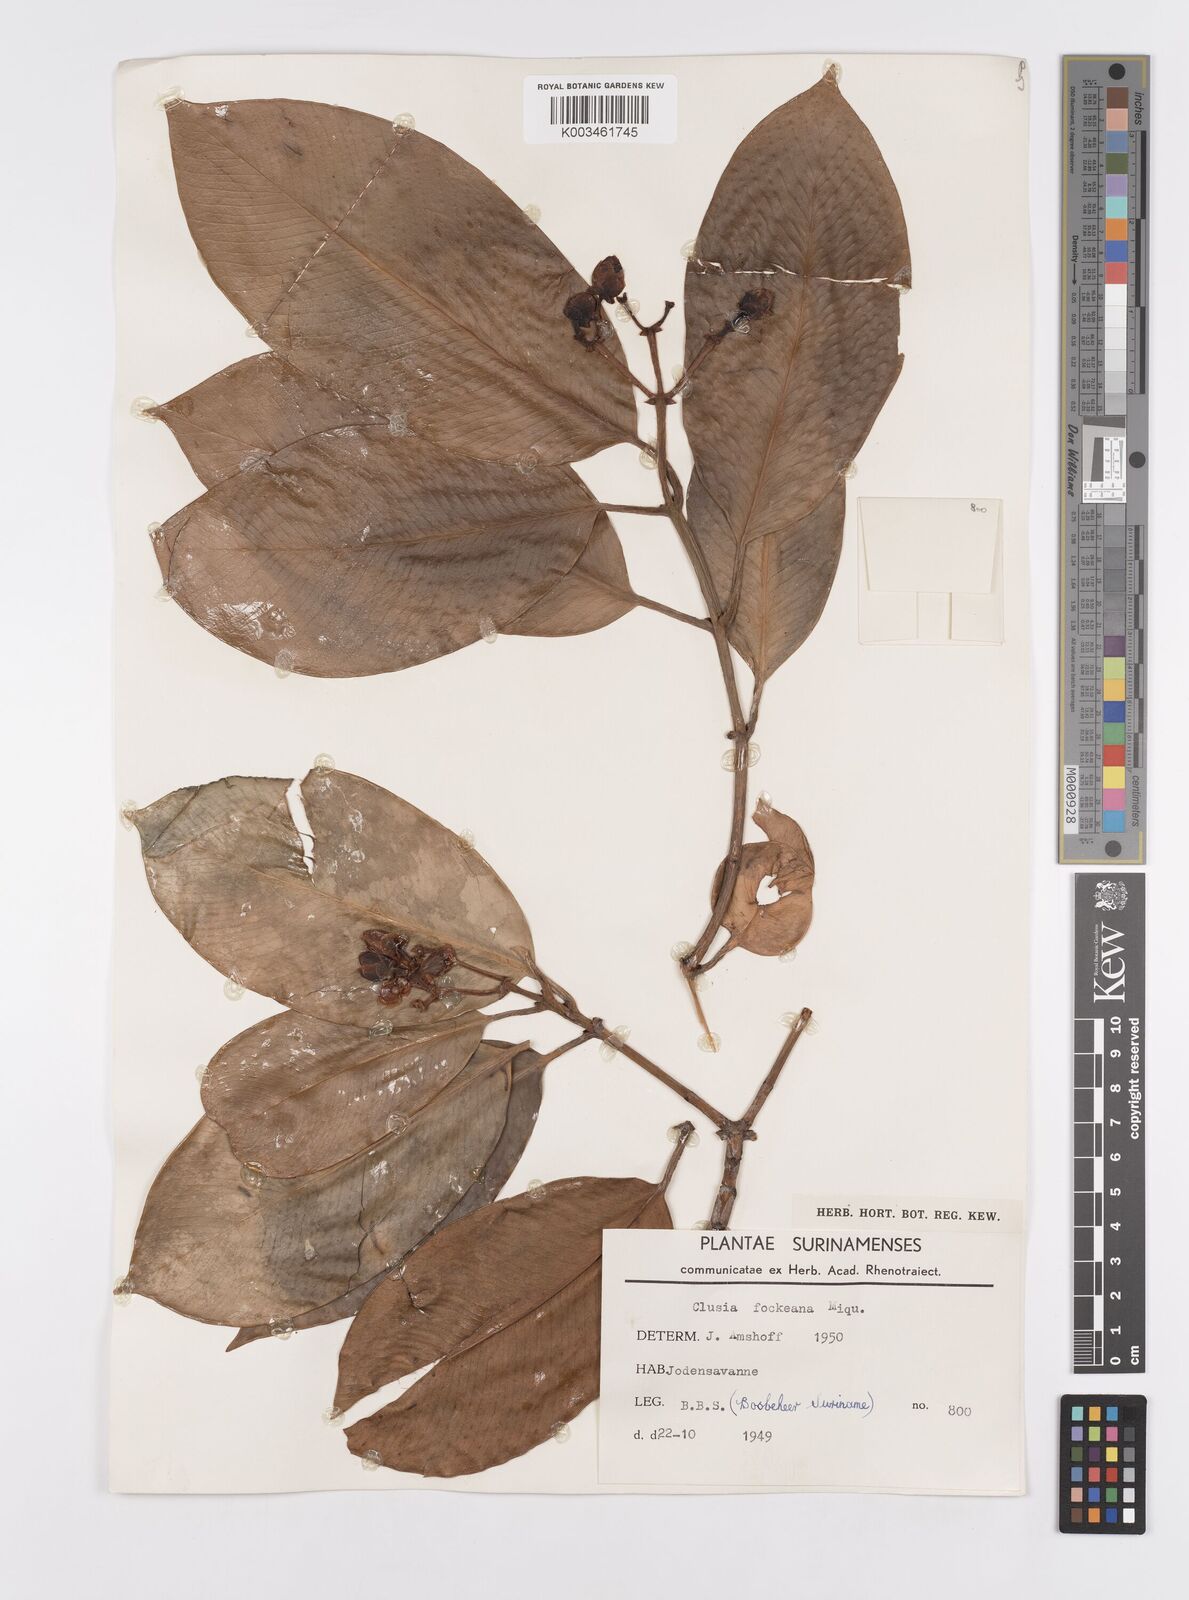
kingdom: Plantae
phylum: Tracheophyta
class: Magnoliopsida
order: Malpighiales
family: Clusiaceae
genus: Clusia
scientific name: Clusia fockeana
